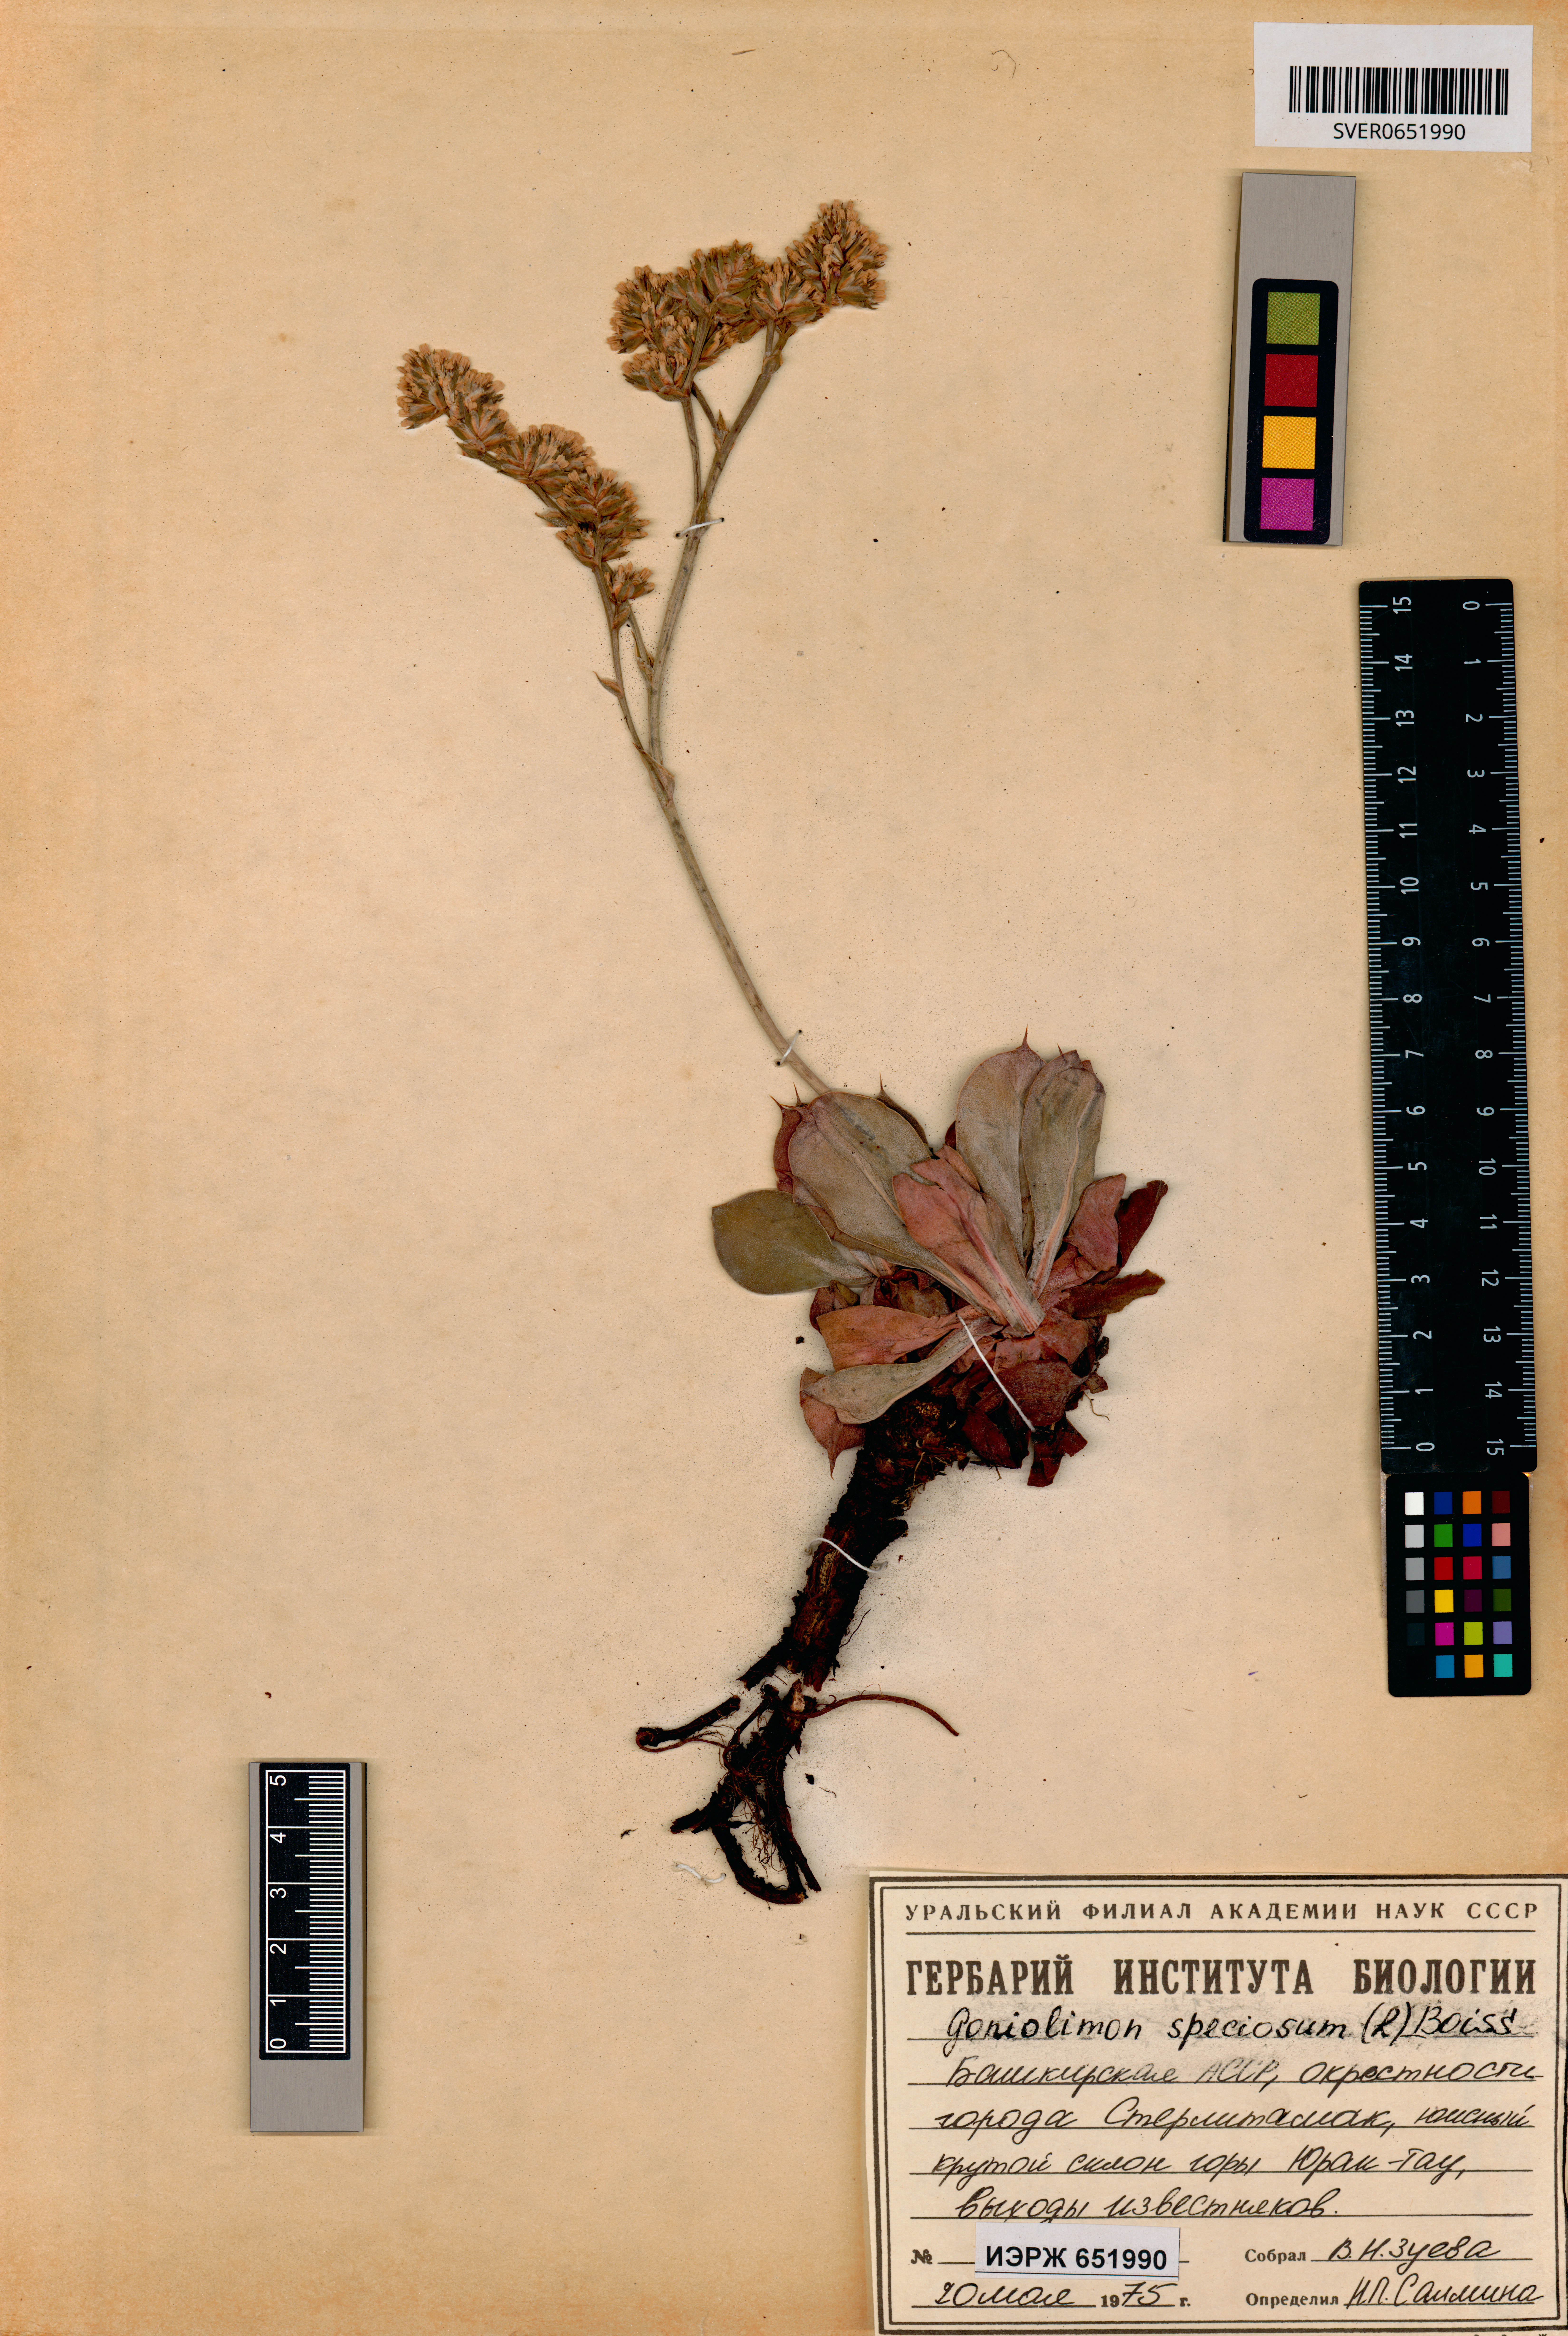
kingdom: Plantae
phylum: Tracheophyta
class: Magnoliopsida
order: Caryophyllales
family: Plumbaginaceae
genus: Goniolimon
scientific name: Goniolimon speciosum
